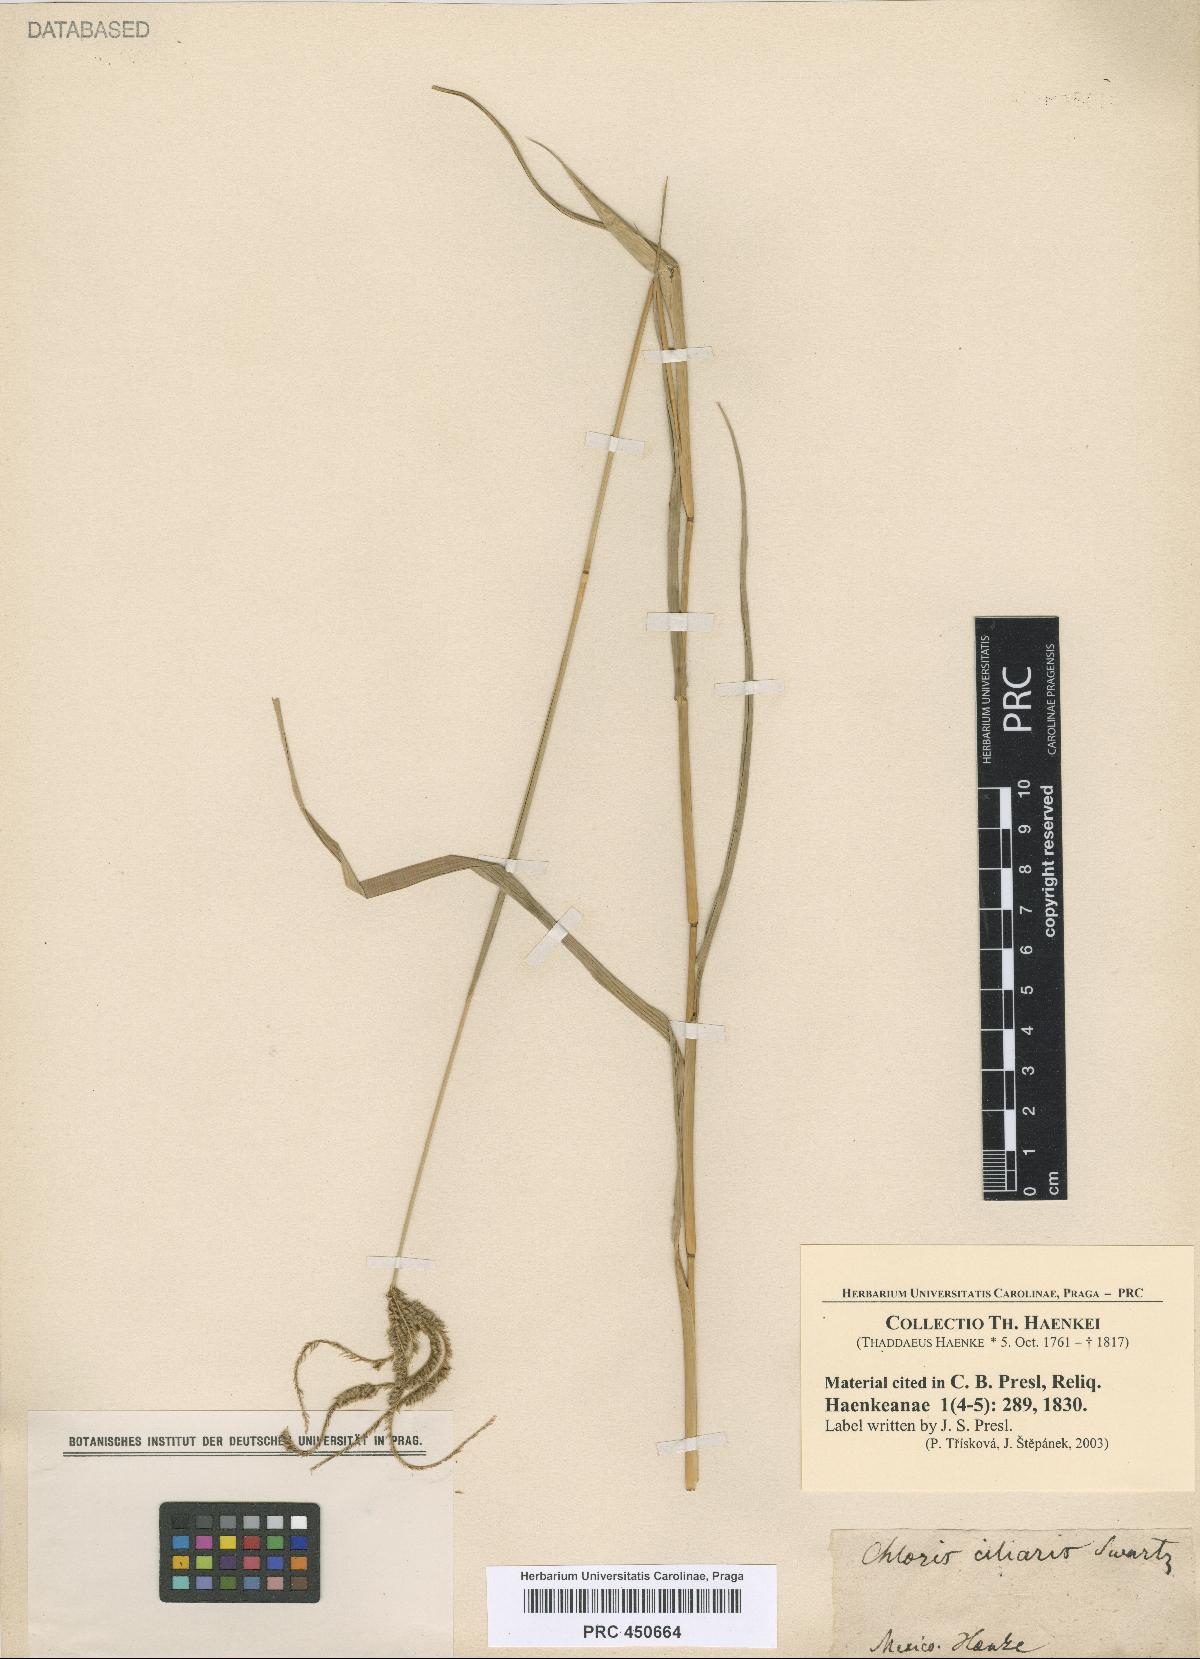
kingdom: Plantae
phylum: Tracheophyta
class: Liliopsida
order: Poales
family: Poaceae
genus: Stapfochloa
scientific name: Stapfochloa ciliata
